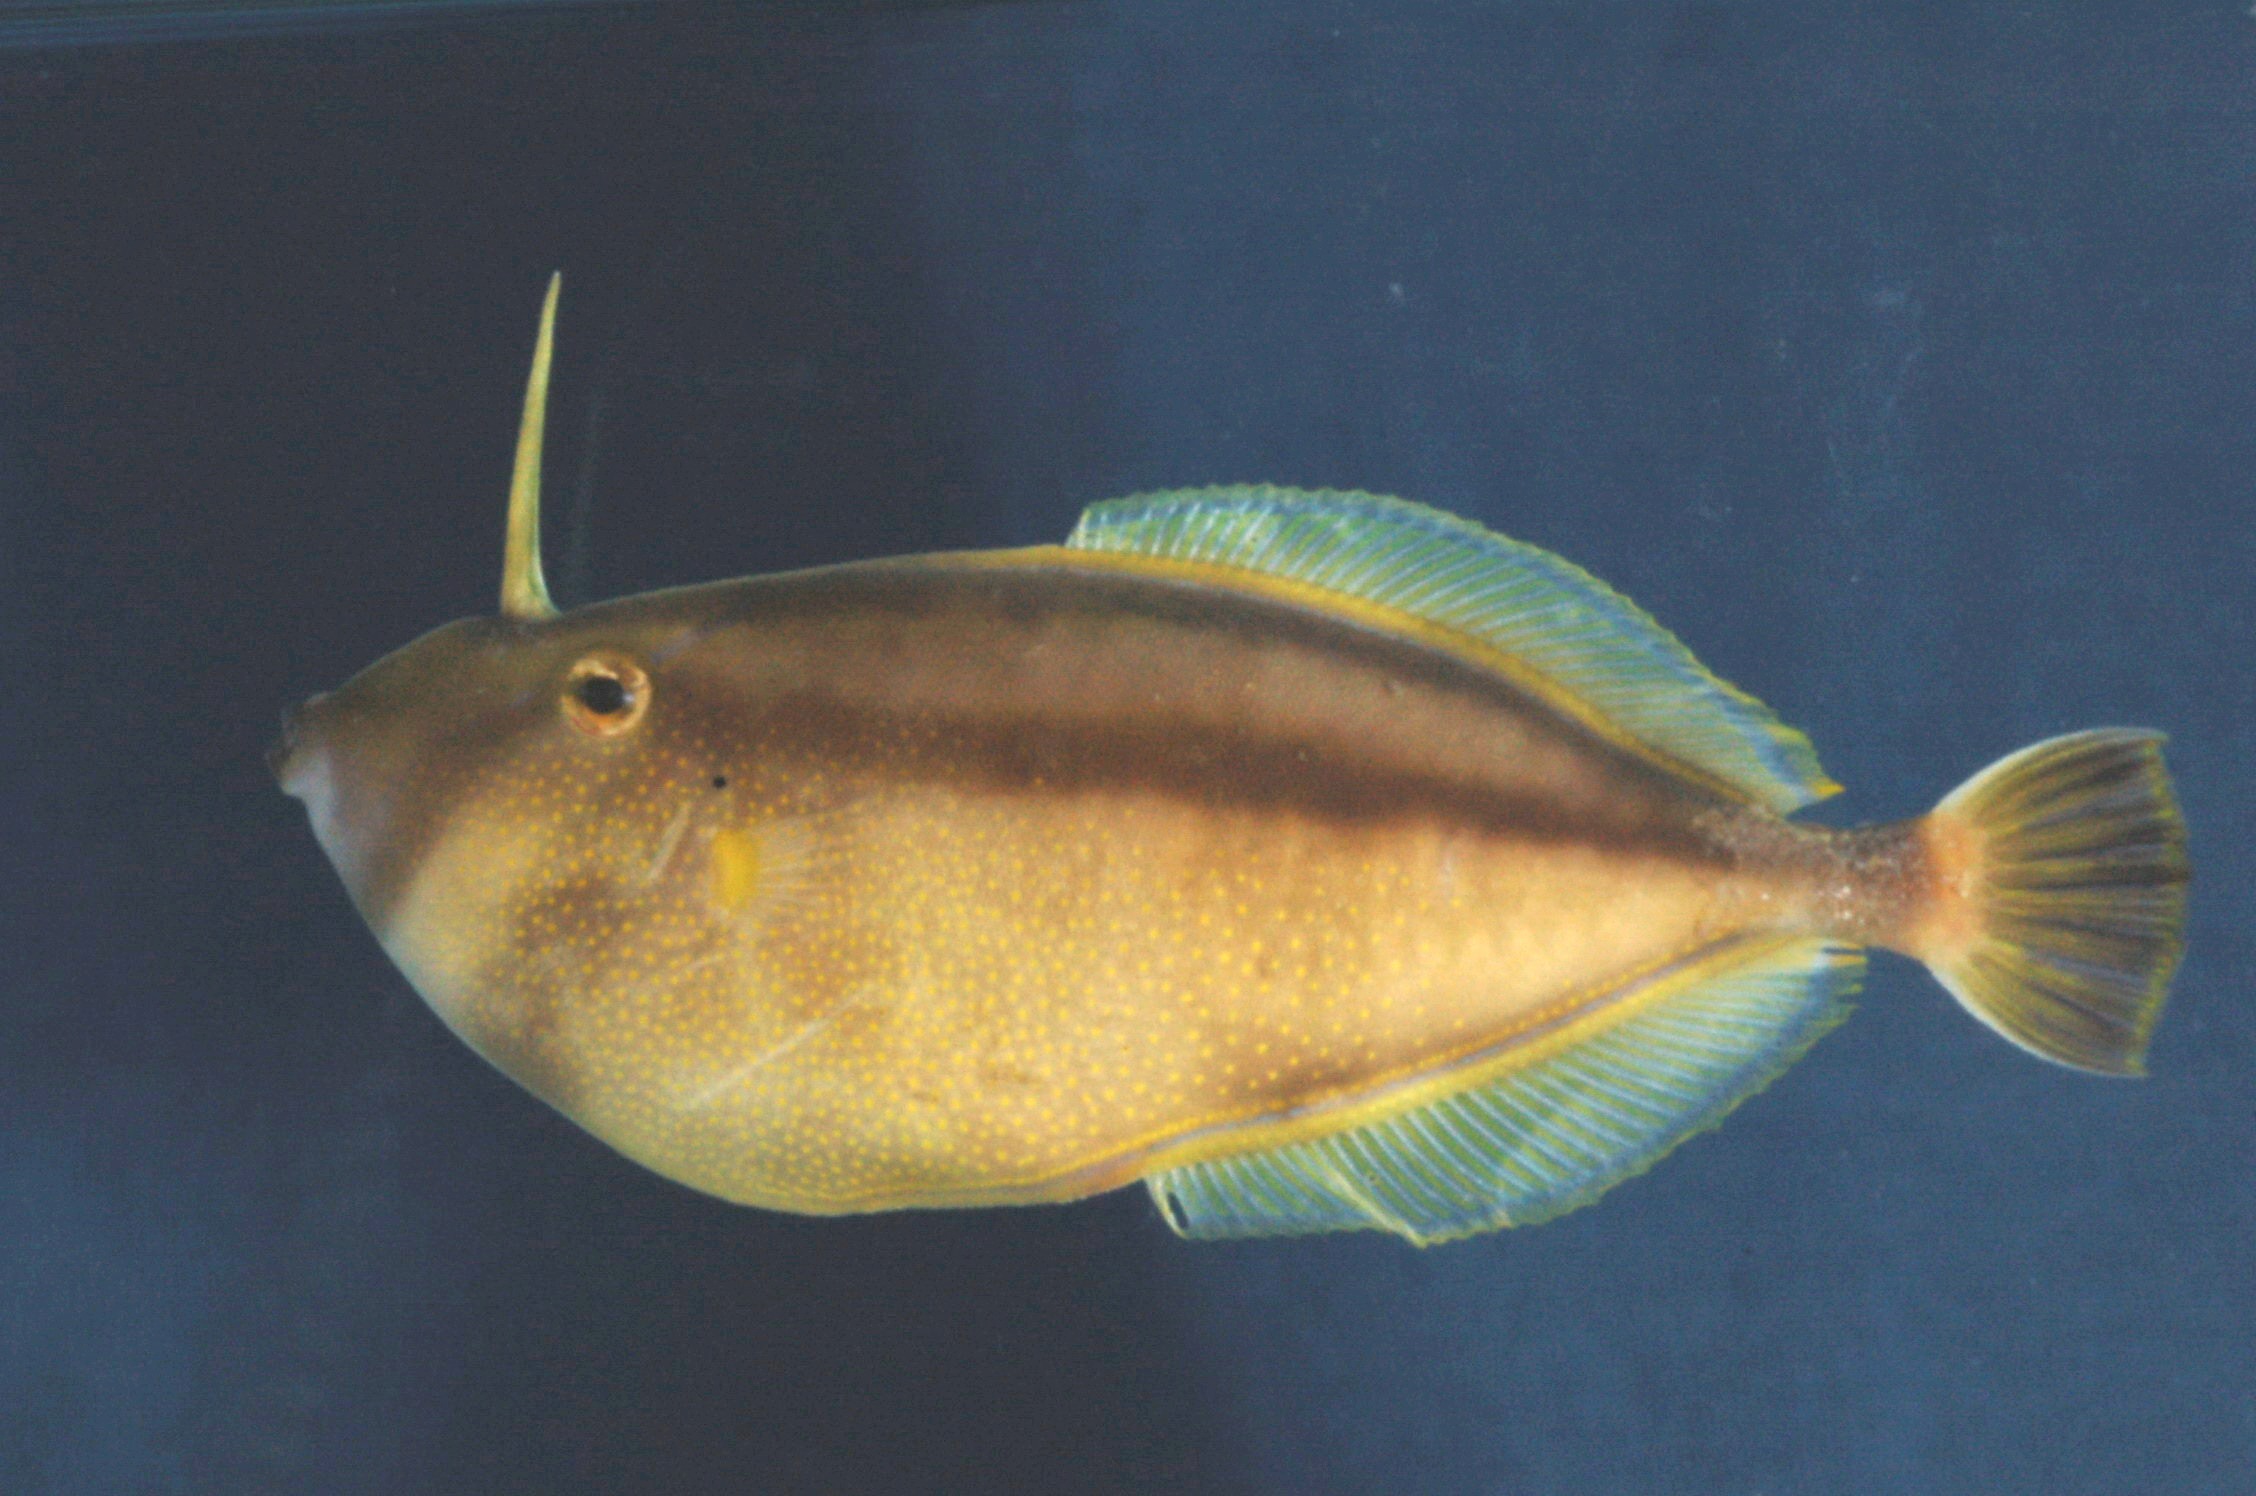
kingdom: Animalia
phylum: Chordata
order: Tetraodontiformes
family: Monacanthidae
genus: Pseudalutarius
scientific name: Pseudalutarius nasicornis
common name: Rhinoceros filefish
